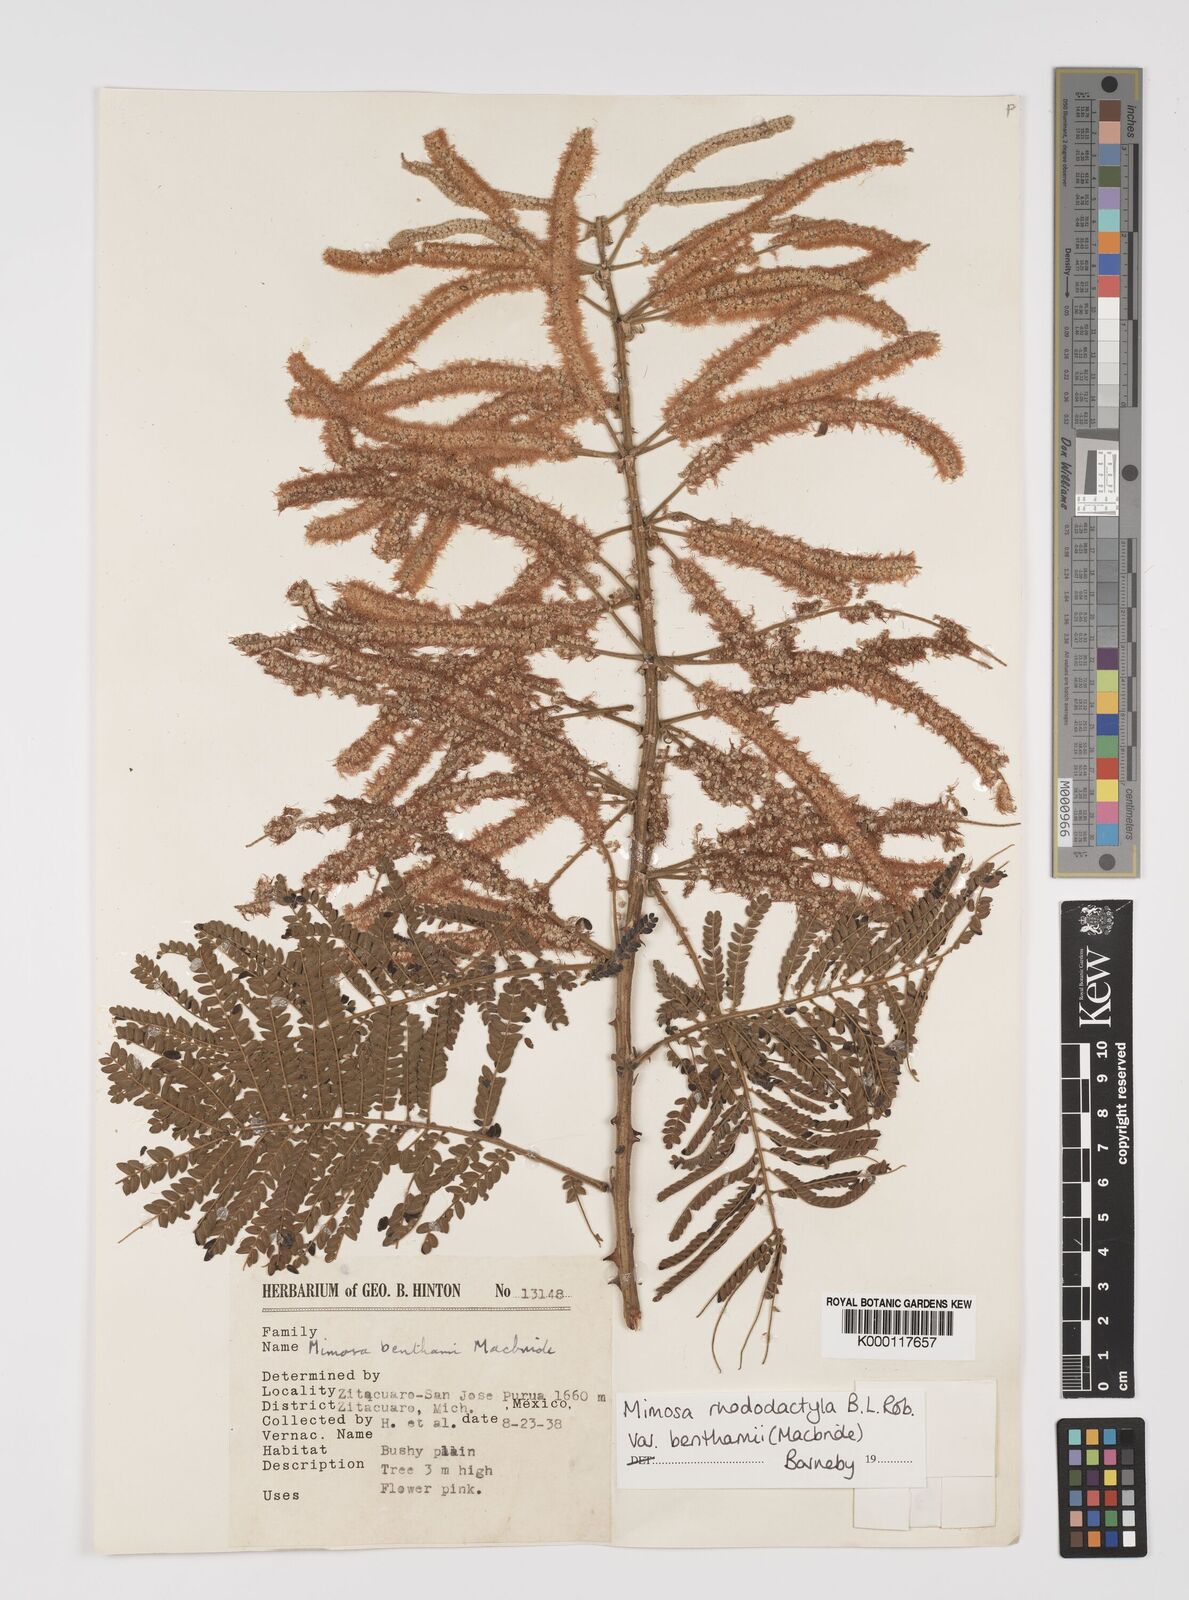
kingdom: Plantae
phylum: Tracheophyta
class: Magnoliopsida
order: Fabales
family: Fabaceae
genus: Mimosa
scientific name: Mimosa benthamii
